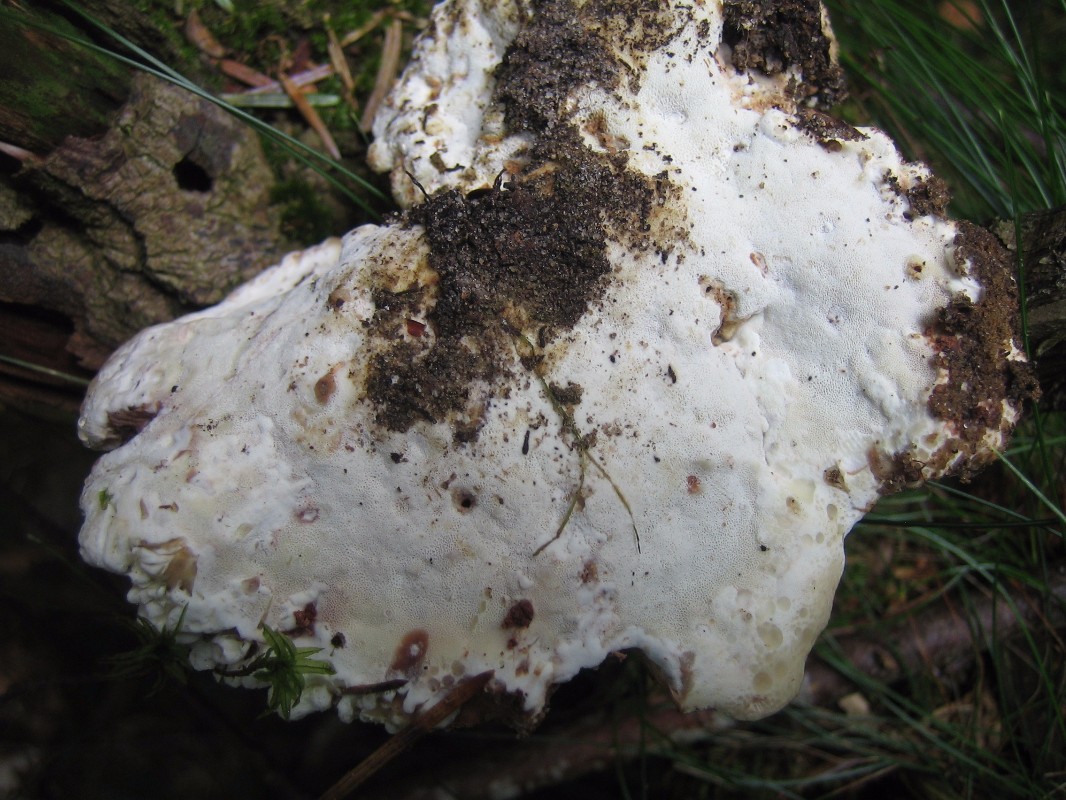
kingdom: Fungi
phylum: Basidiomycota
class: Agaricomycetes
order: Polyporales
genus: Calcipostia
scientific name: Calcipostia guttulata
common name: dråbe-kødporesvamp
